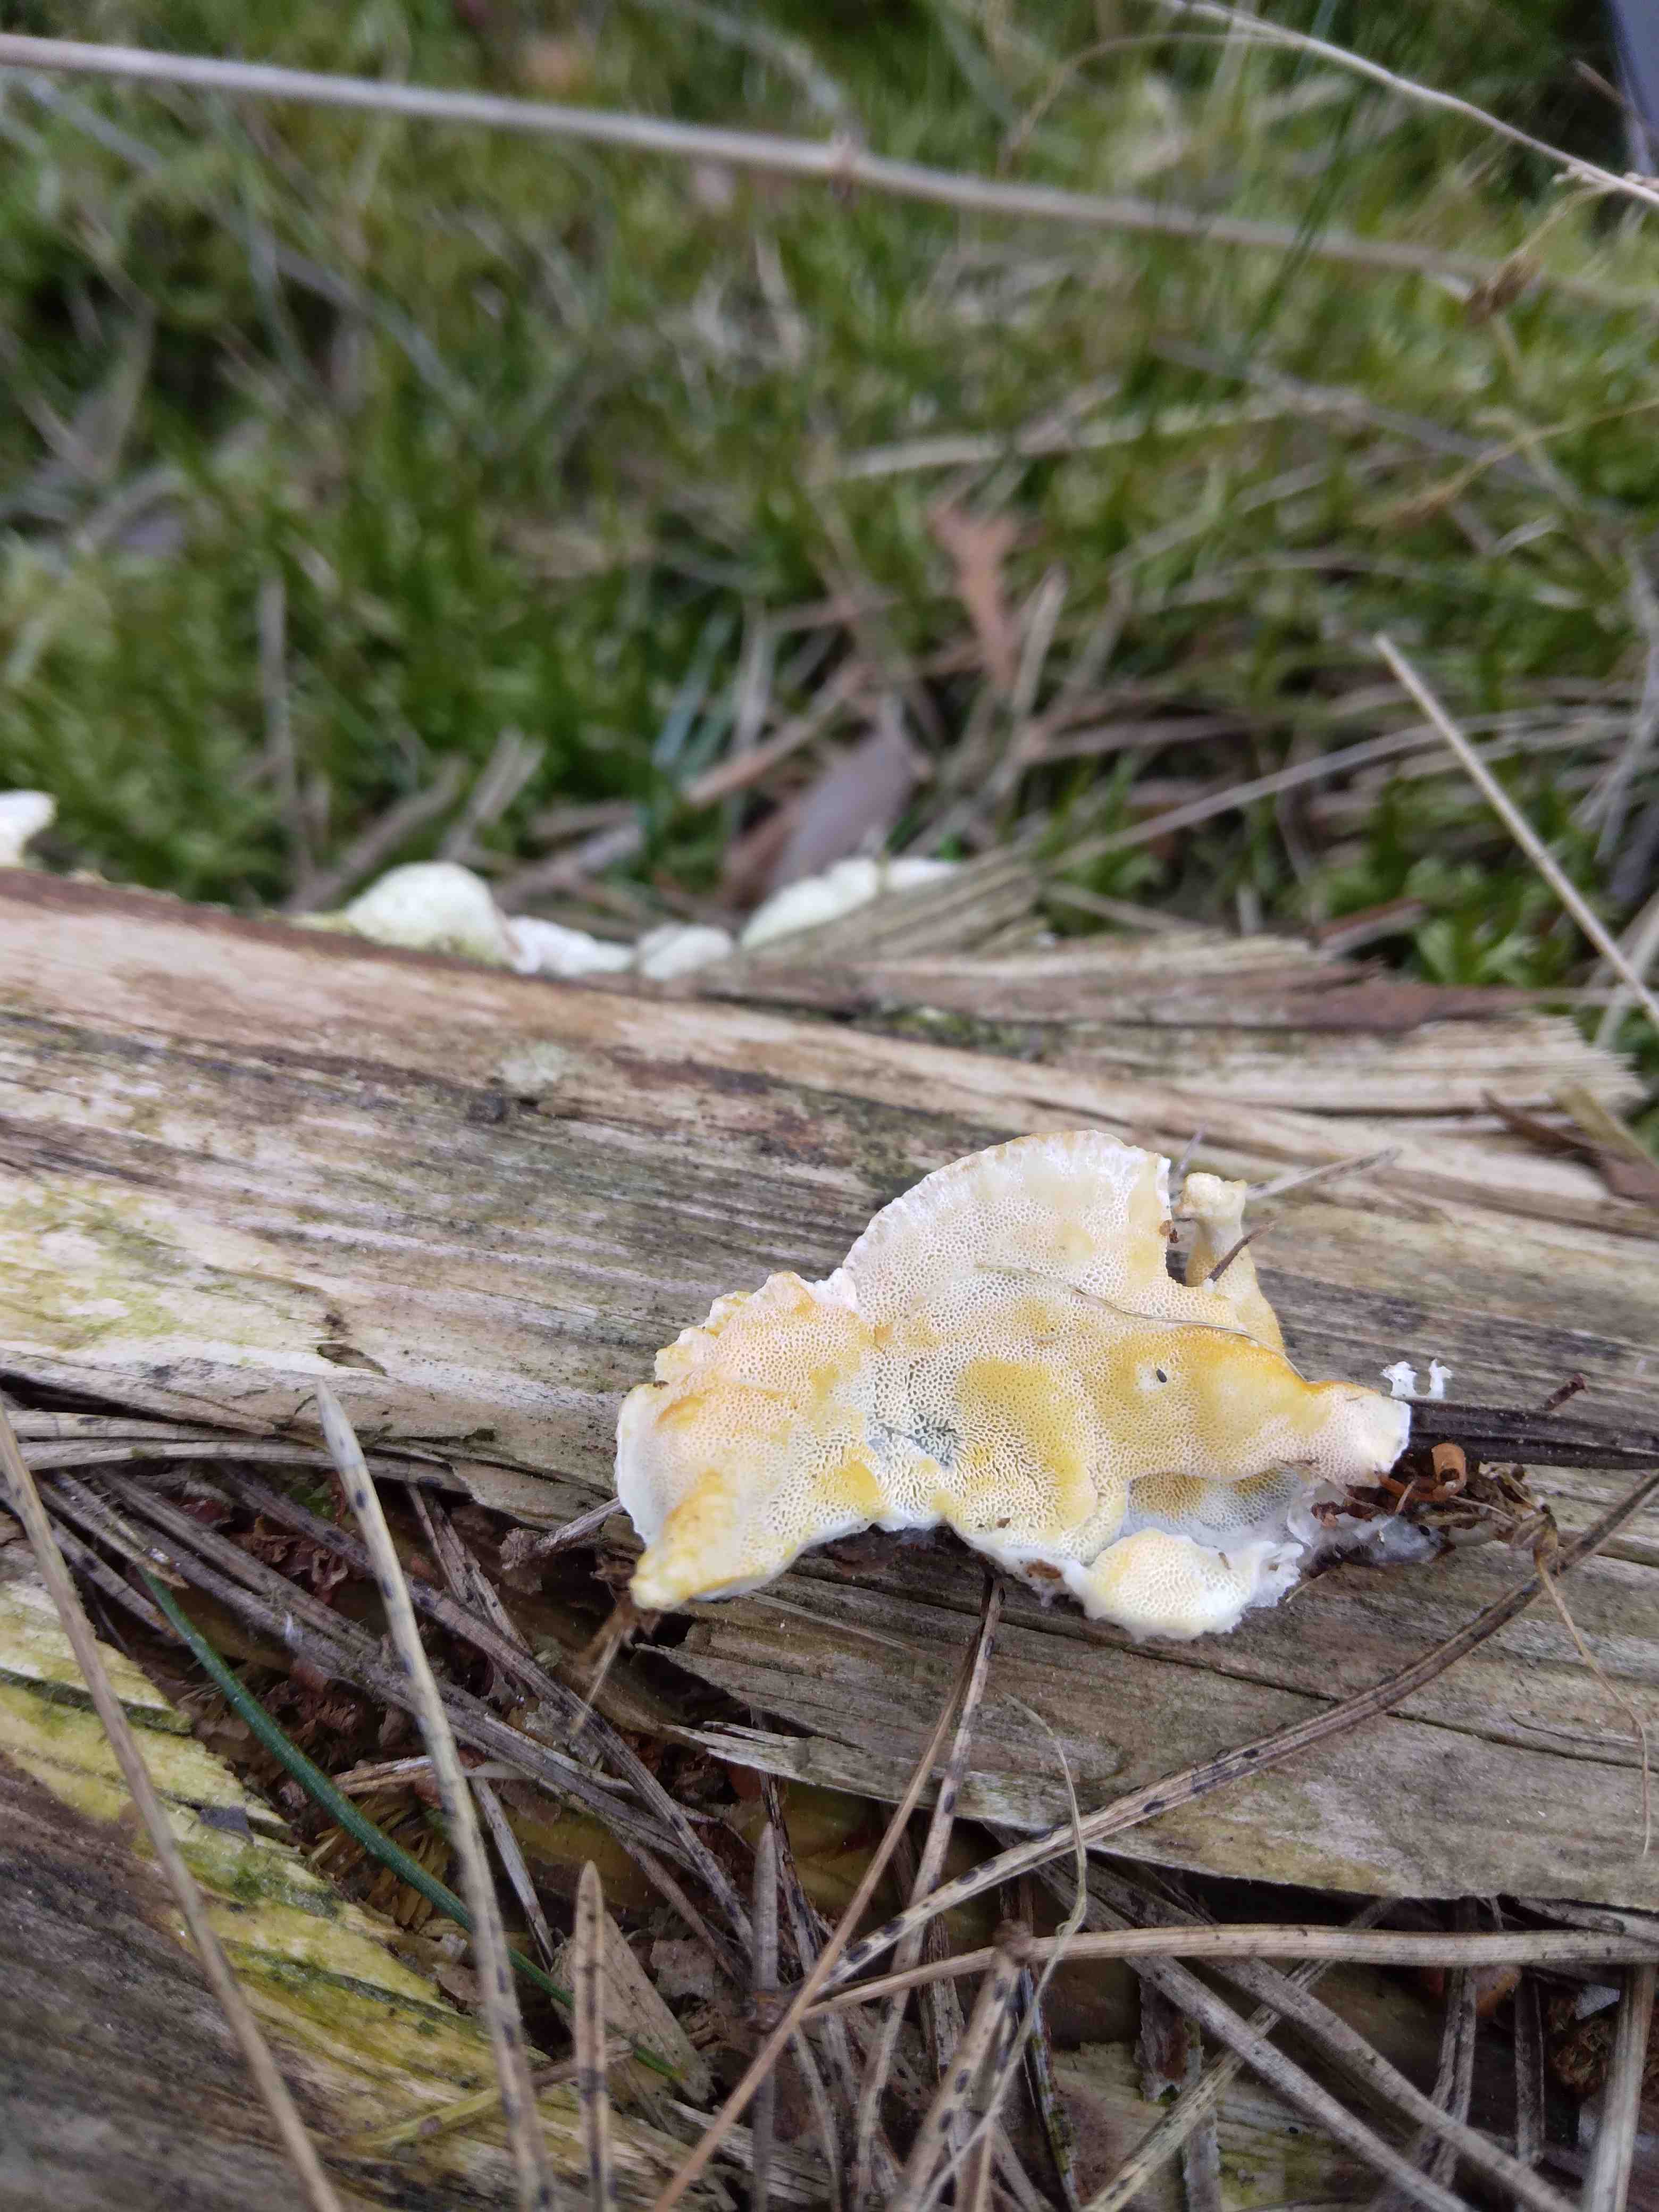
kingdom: Fungi
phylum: Basidiomycota
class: Agaricomycetes
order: Polyporales
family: Incrustoporiaceae
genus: Skeletocutis
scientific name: Skeletocutis amorpha
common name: orange krystalporesvamp
